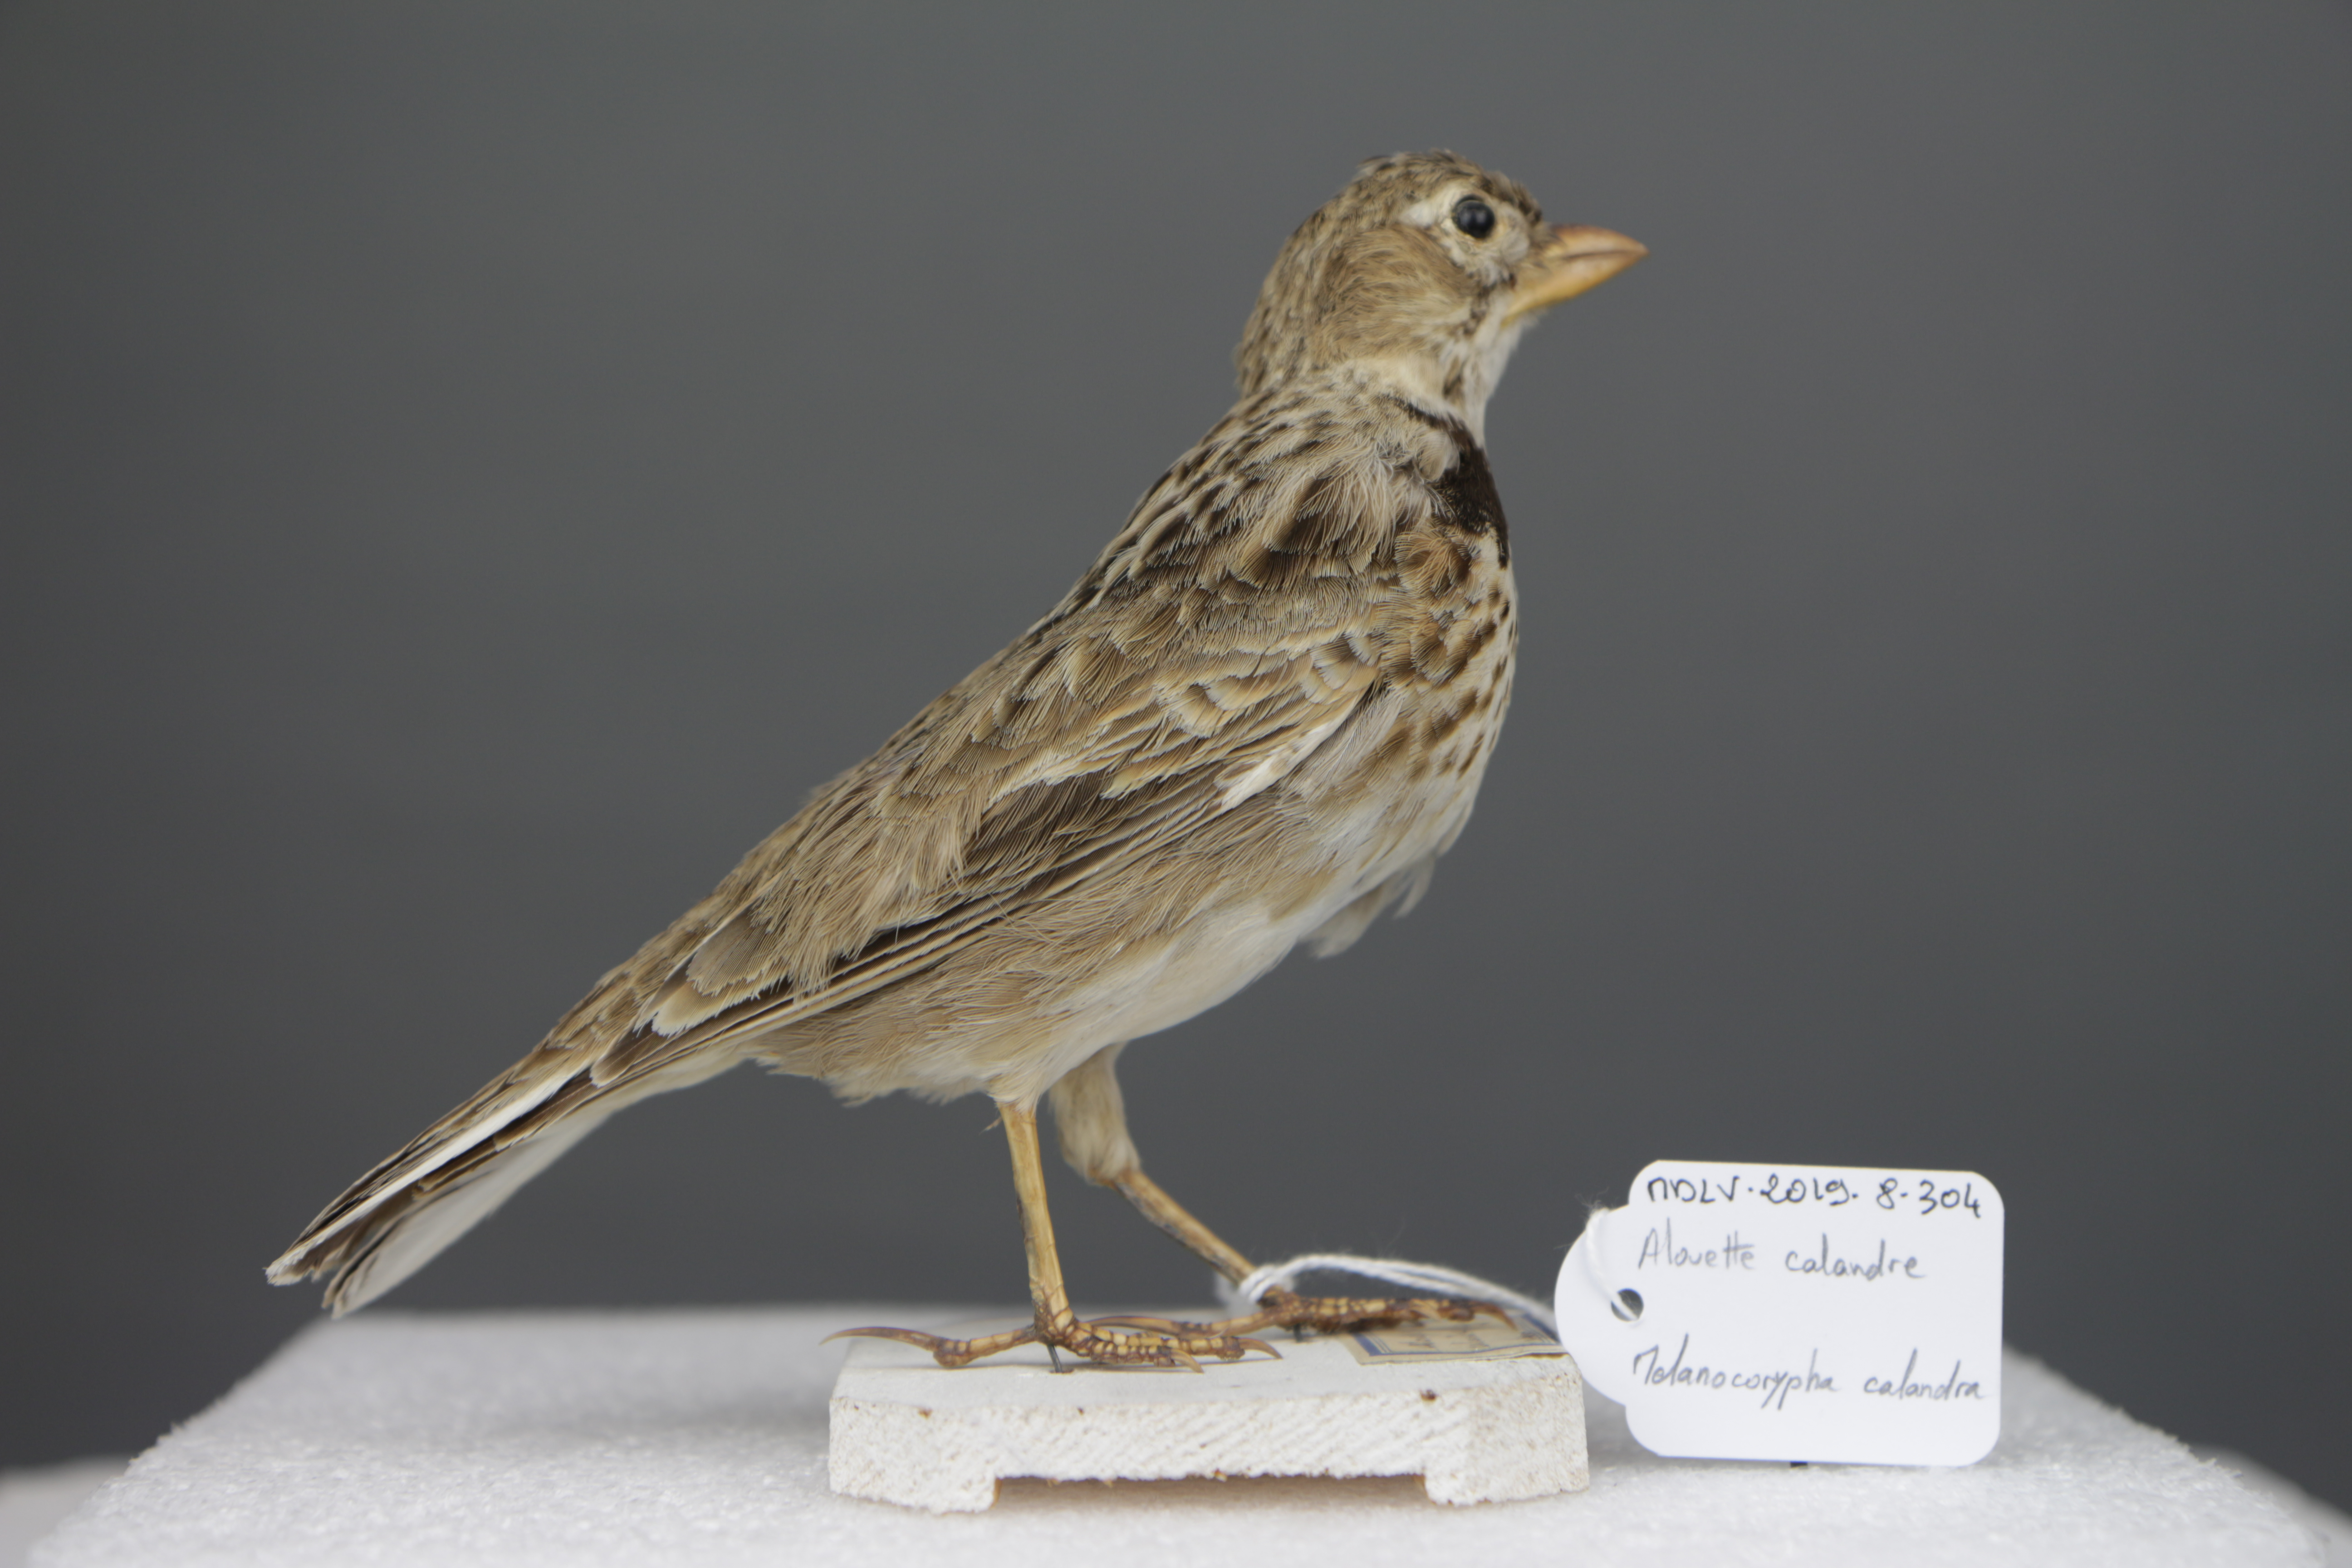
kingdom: Animalia
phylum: Chordata
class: Aves
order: Passeriformes
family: Alaudidae
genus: Melanocorypha
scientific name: Melanocorypha calandra
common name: Calandra lark
